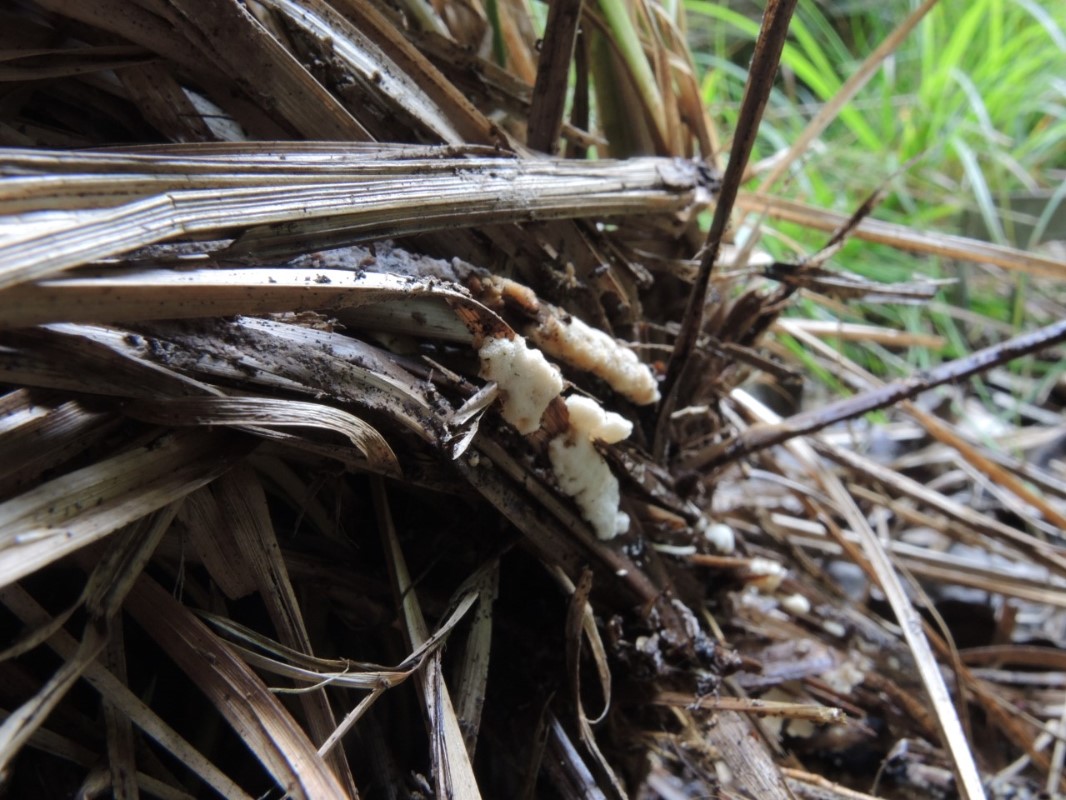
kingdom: Fungi
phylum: Basidiomycota
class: Agaricomycetes
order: Polyporales
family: Meripilaceae
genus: Rigidoporus
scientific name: Rigidoporus sanguinolentus
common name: blod-skorpeporesvamp
